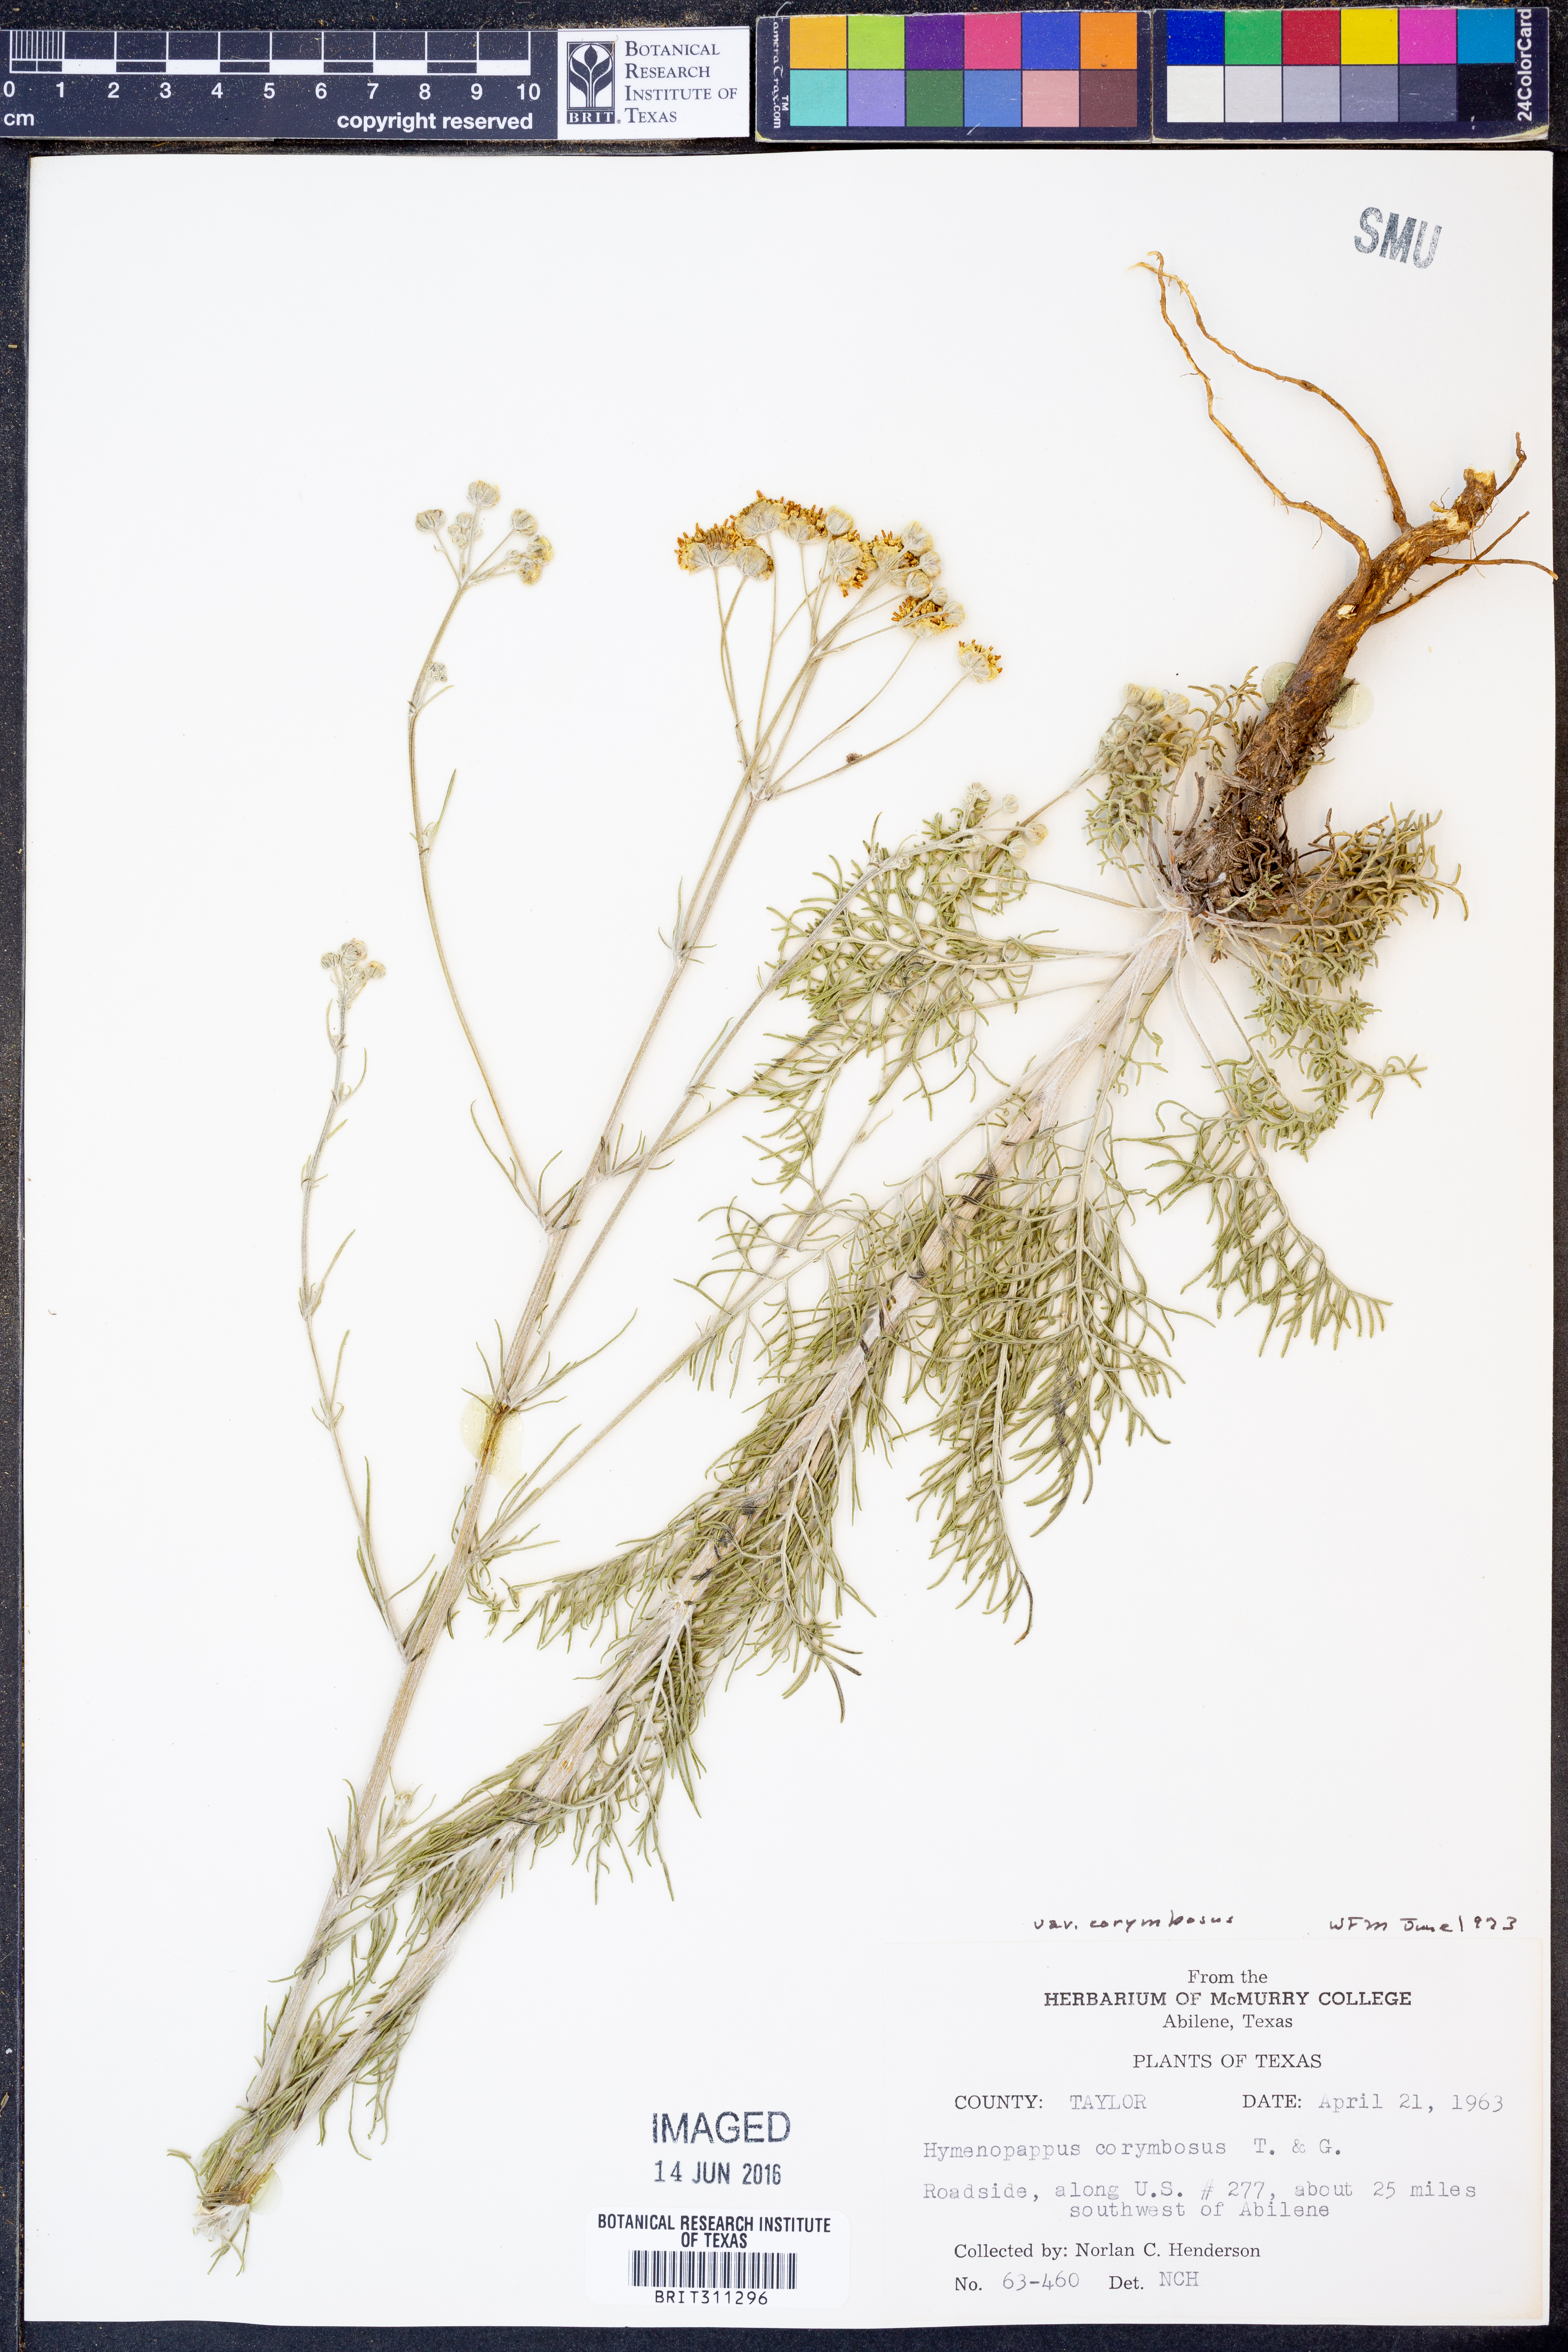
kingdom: Plantae
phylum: Tracheophyta
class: Magnoliopsida
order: Asterales
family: Asteraceae
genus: Hymenopappus
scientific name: Hymenopappus scabiosaeus
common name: Carolina woollywhite
